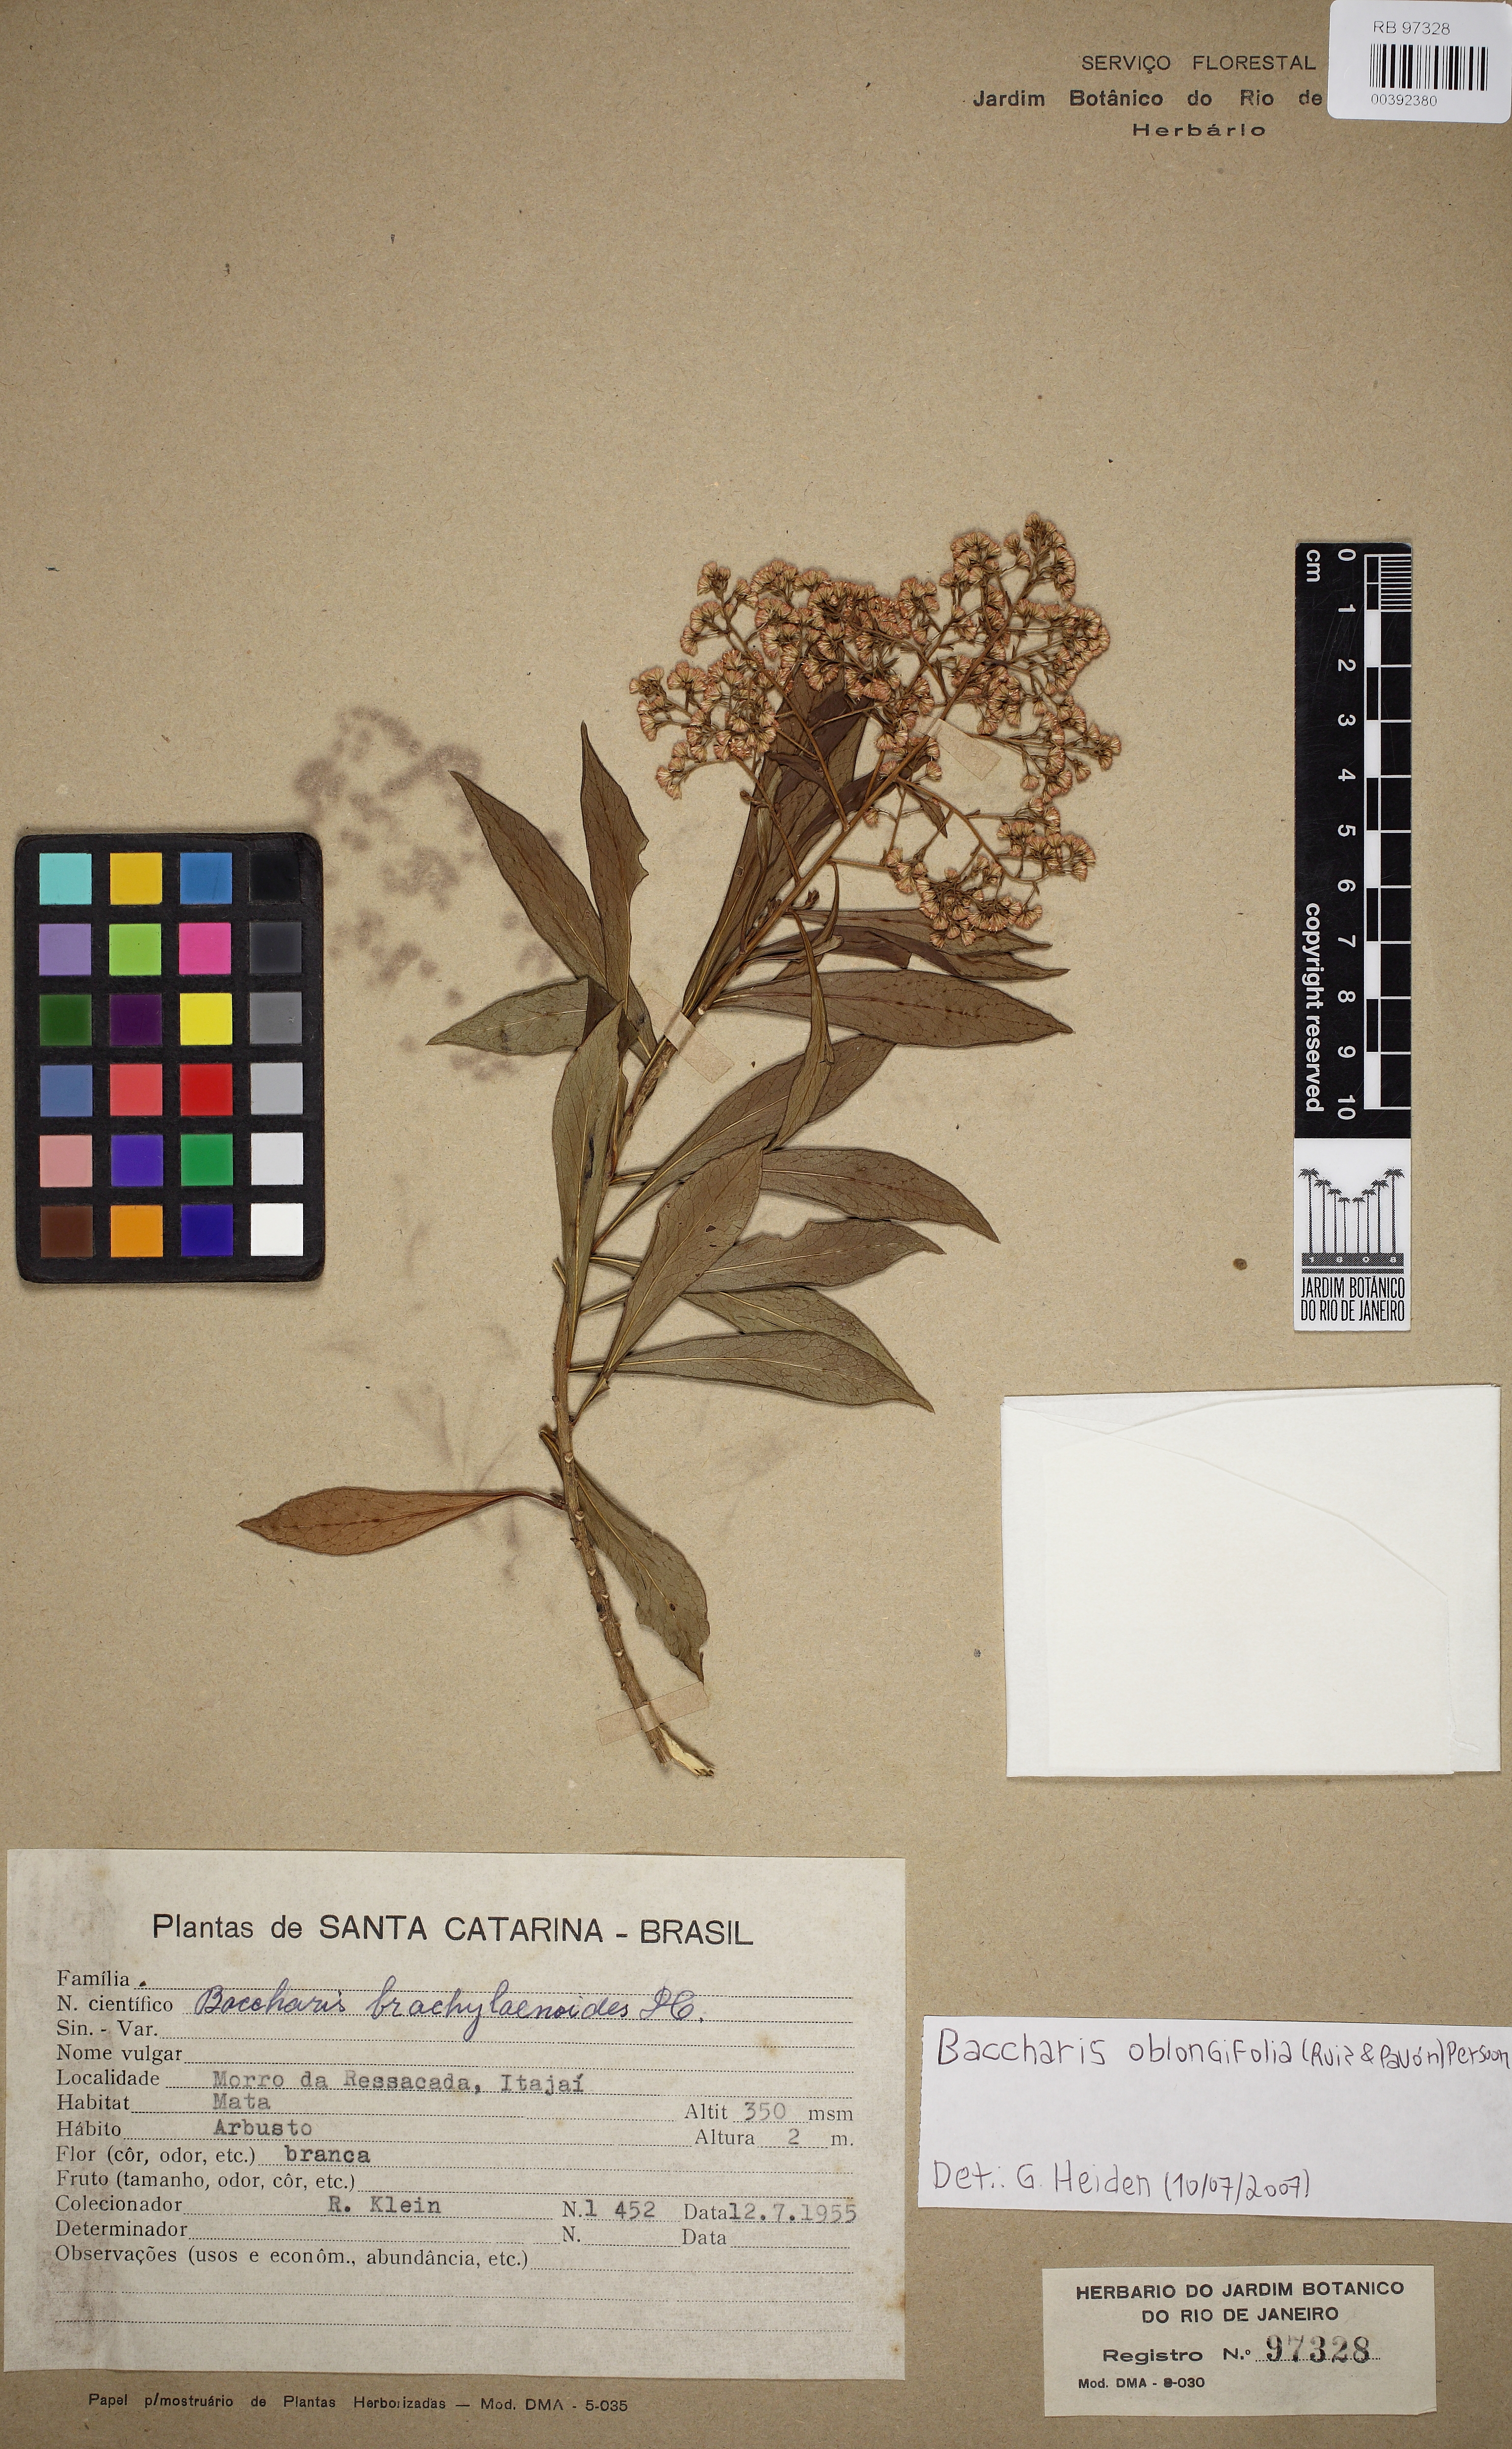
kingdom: Plantae
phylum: Tracheophyta
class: Magnoliopsida
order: Asterales
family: Asteraceae
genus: Baccharis
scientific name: Baccharis oblongifolia
